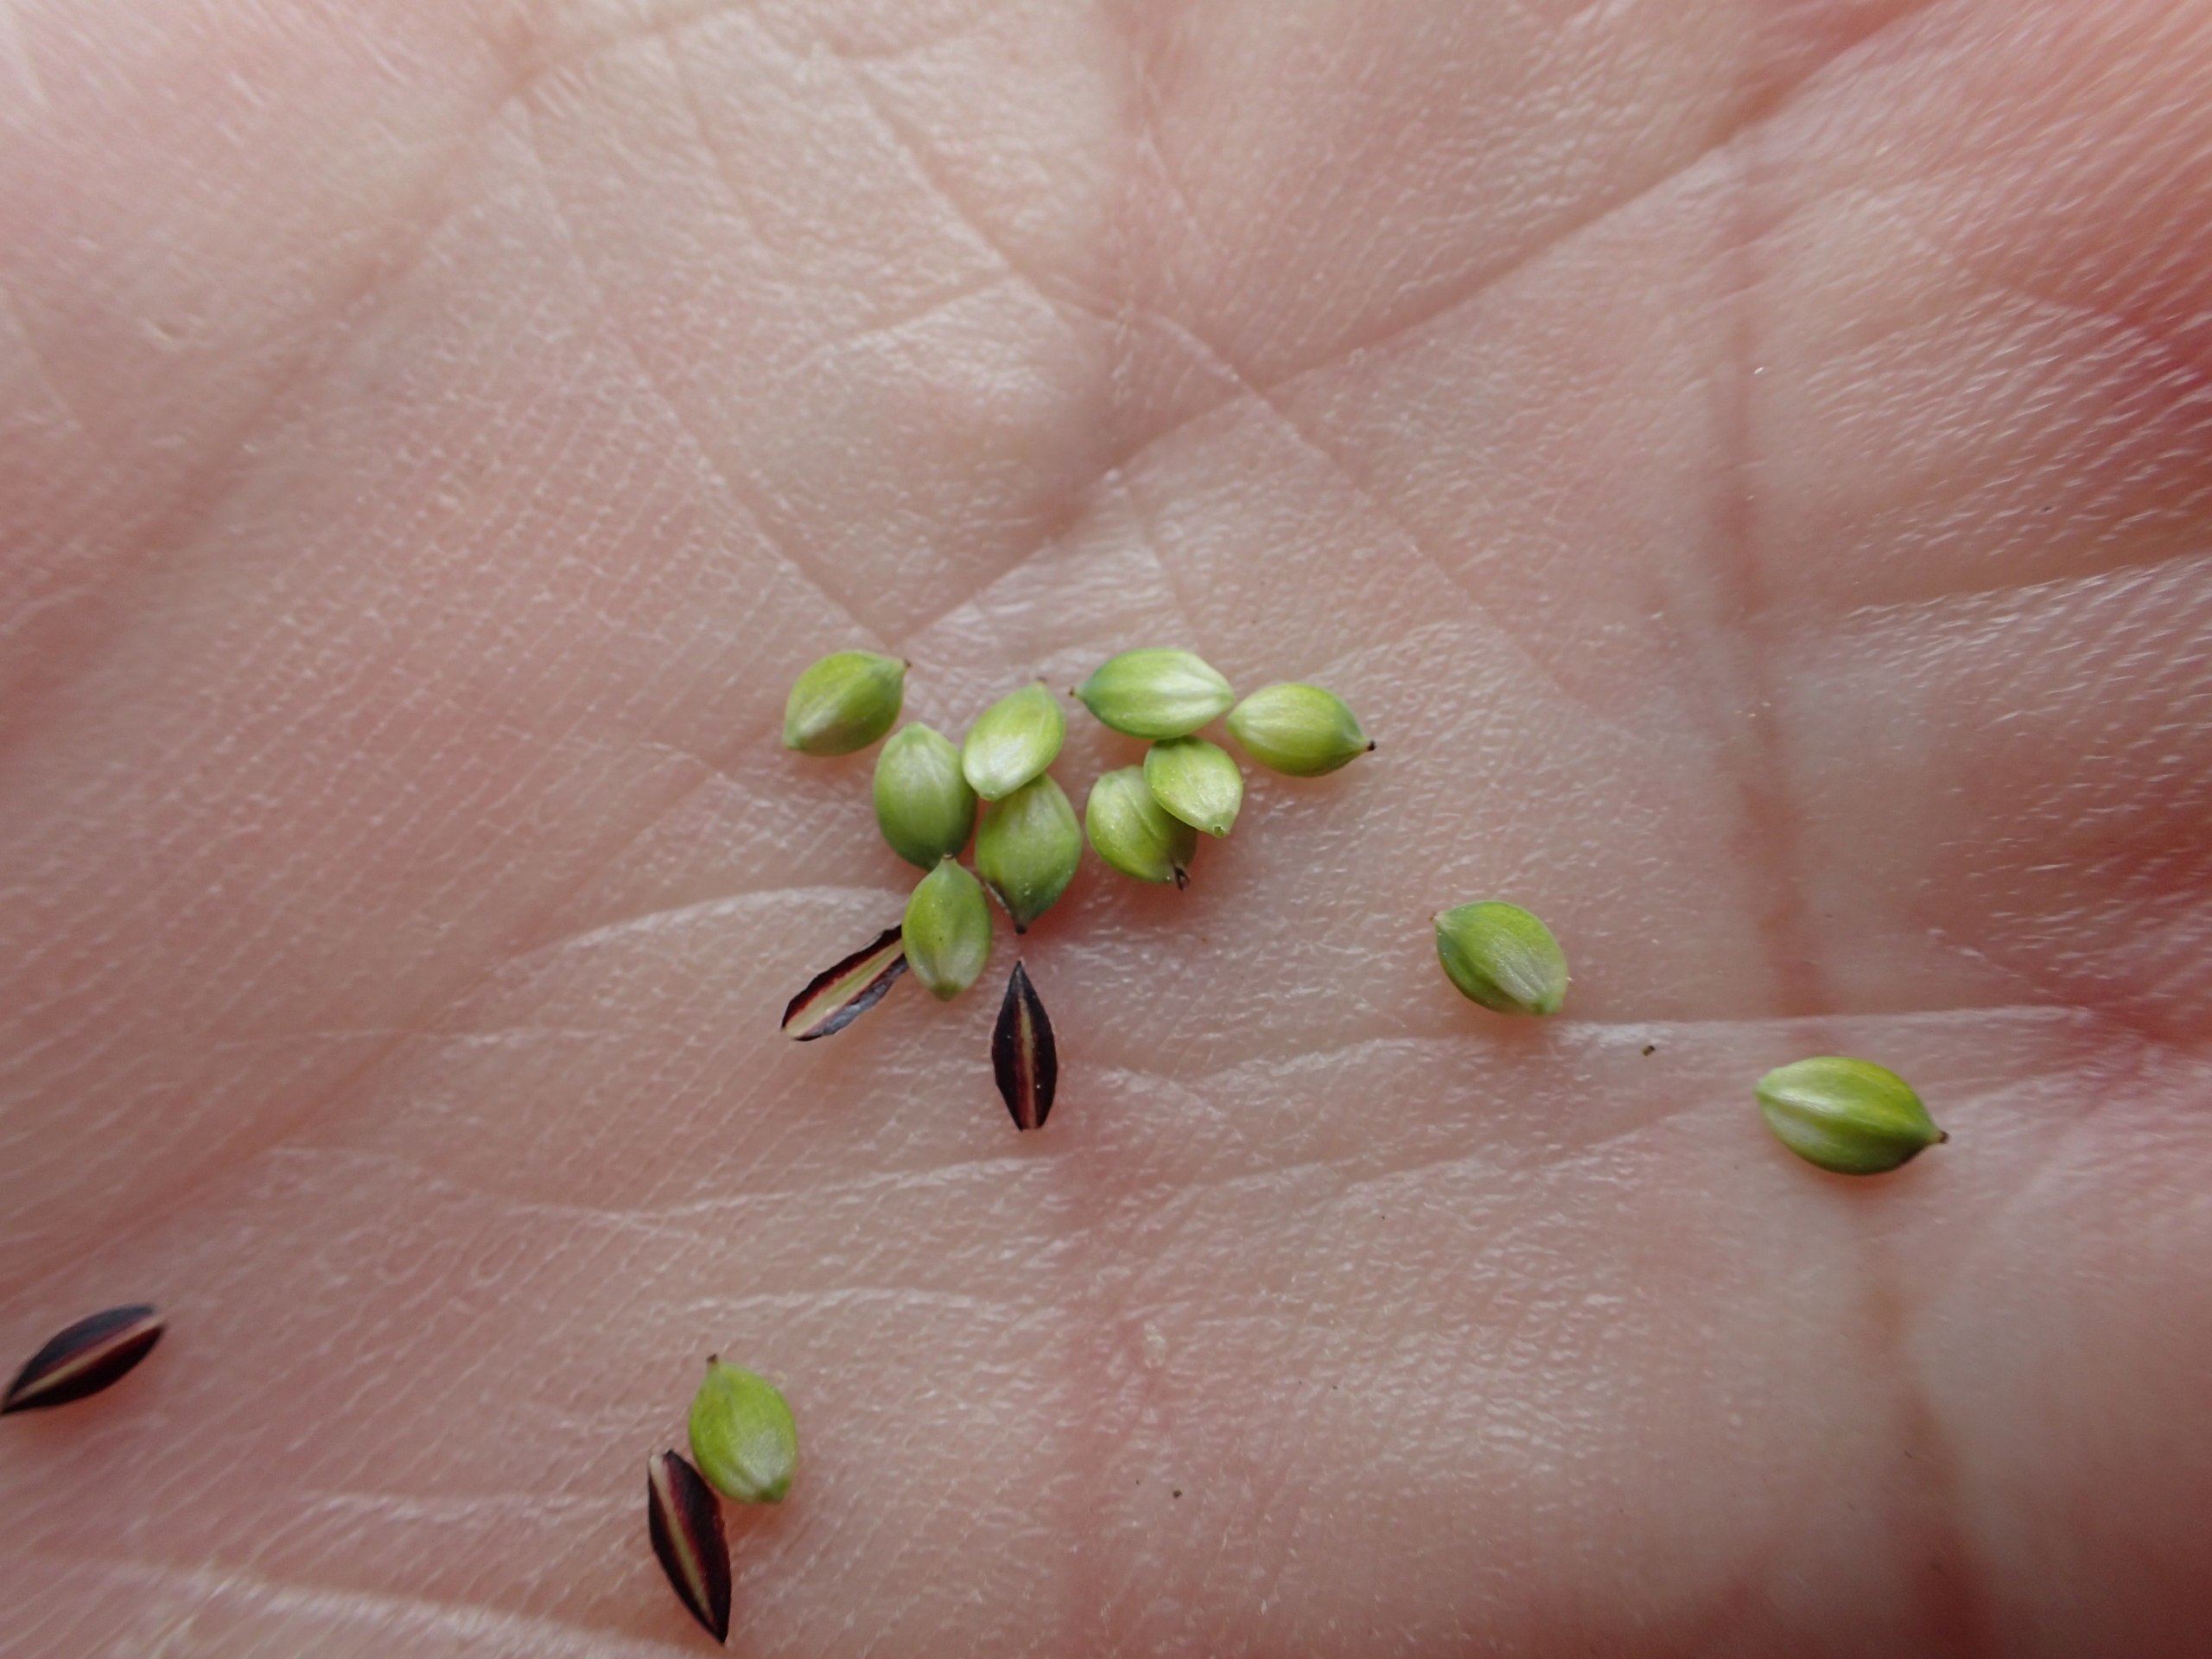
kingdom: Plantae
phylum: Tracheophyta
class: Liliopsida
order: Poales
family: Cyperaceae
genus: Carex
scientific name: Carex nigra
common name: Almindelig star
